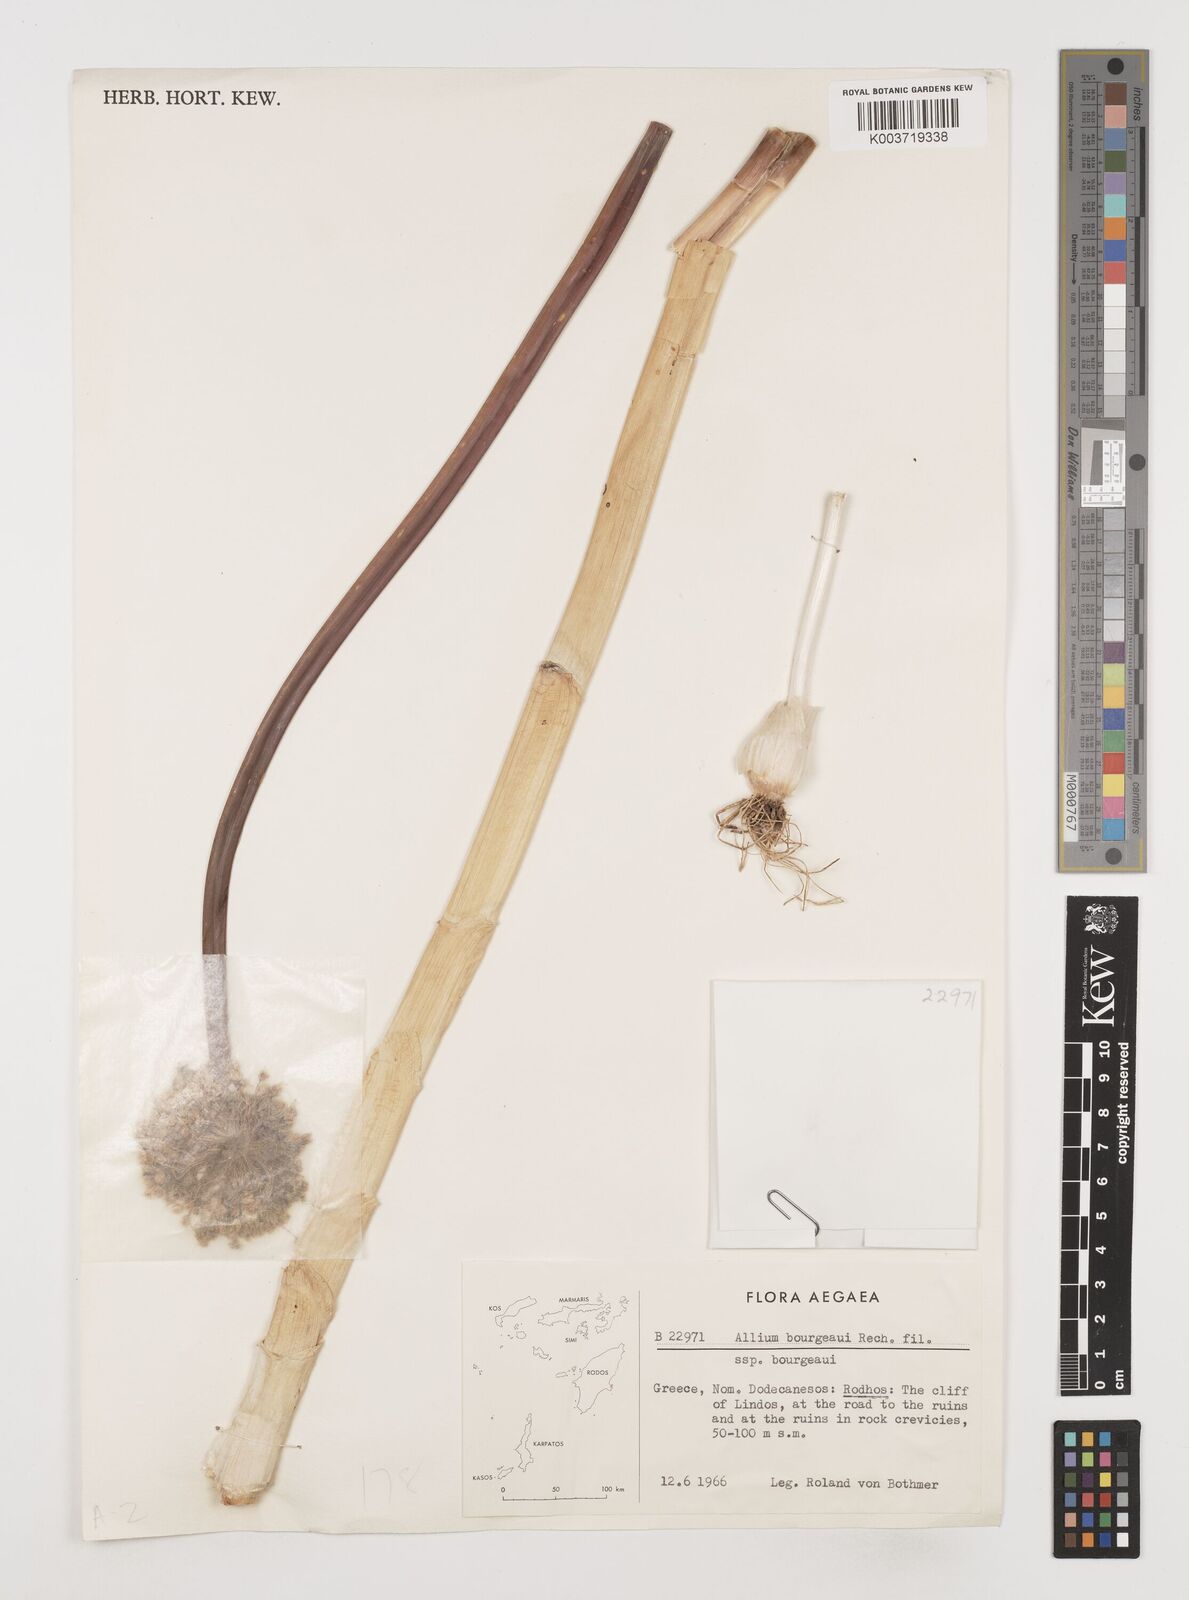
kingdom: Plantae
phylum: Tracheophyta
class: Liliopsida
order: Asparagales
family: Amaryllidaceae
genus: Allium
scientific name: Allium bourgeaui
